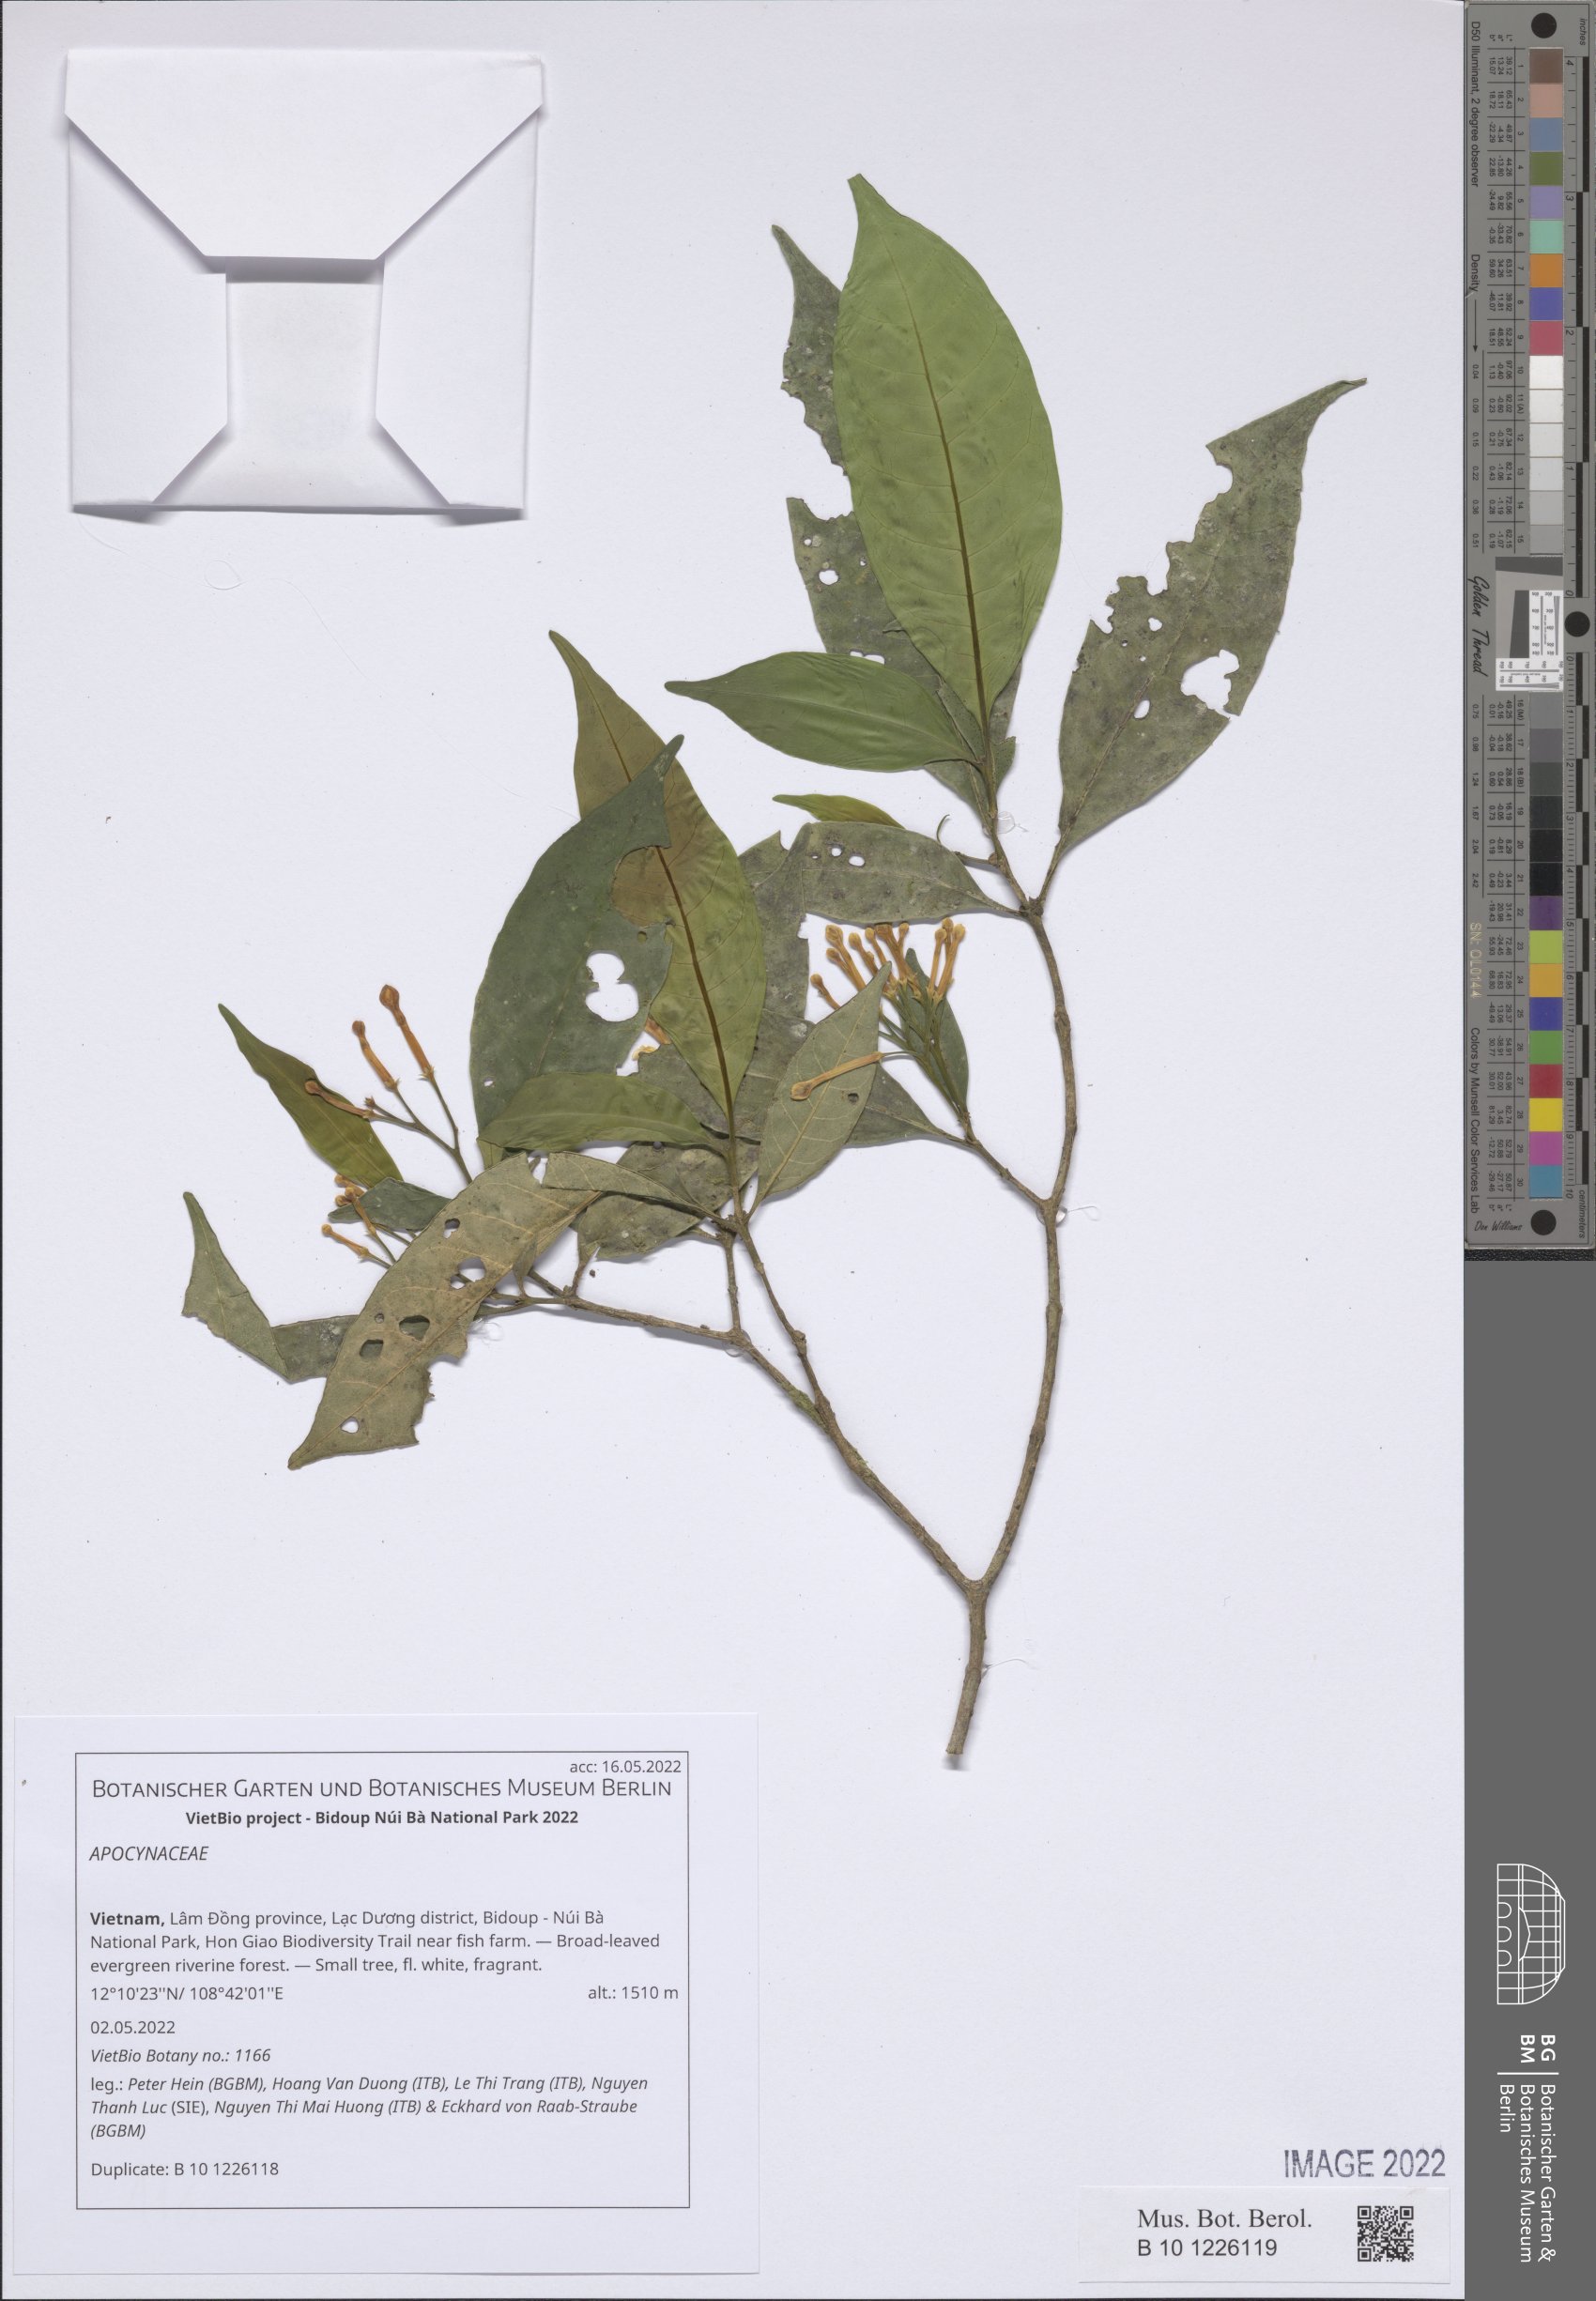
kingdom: Plantae
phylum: Tracheophyta
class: Magnoliopsida
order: Gentianales
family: Apocynaceae
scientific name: Apocynaceae
